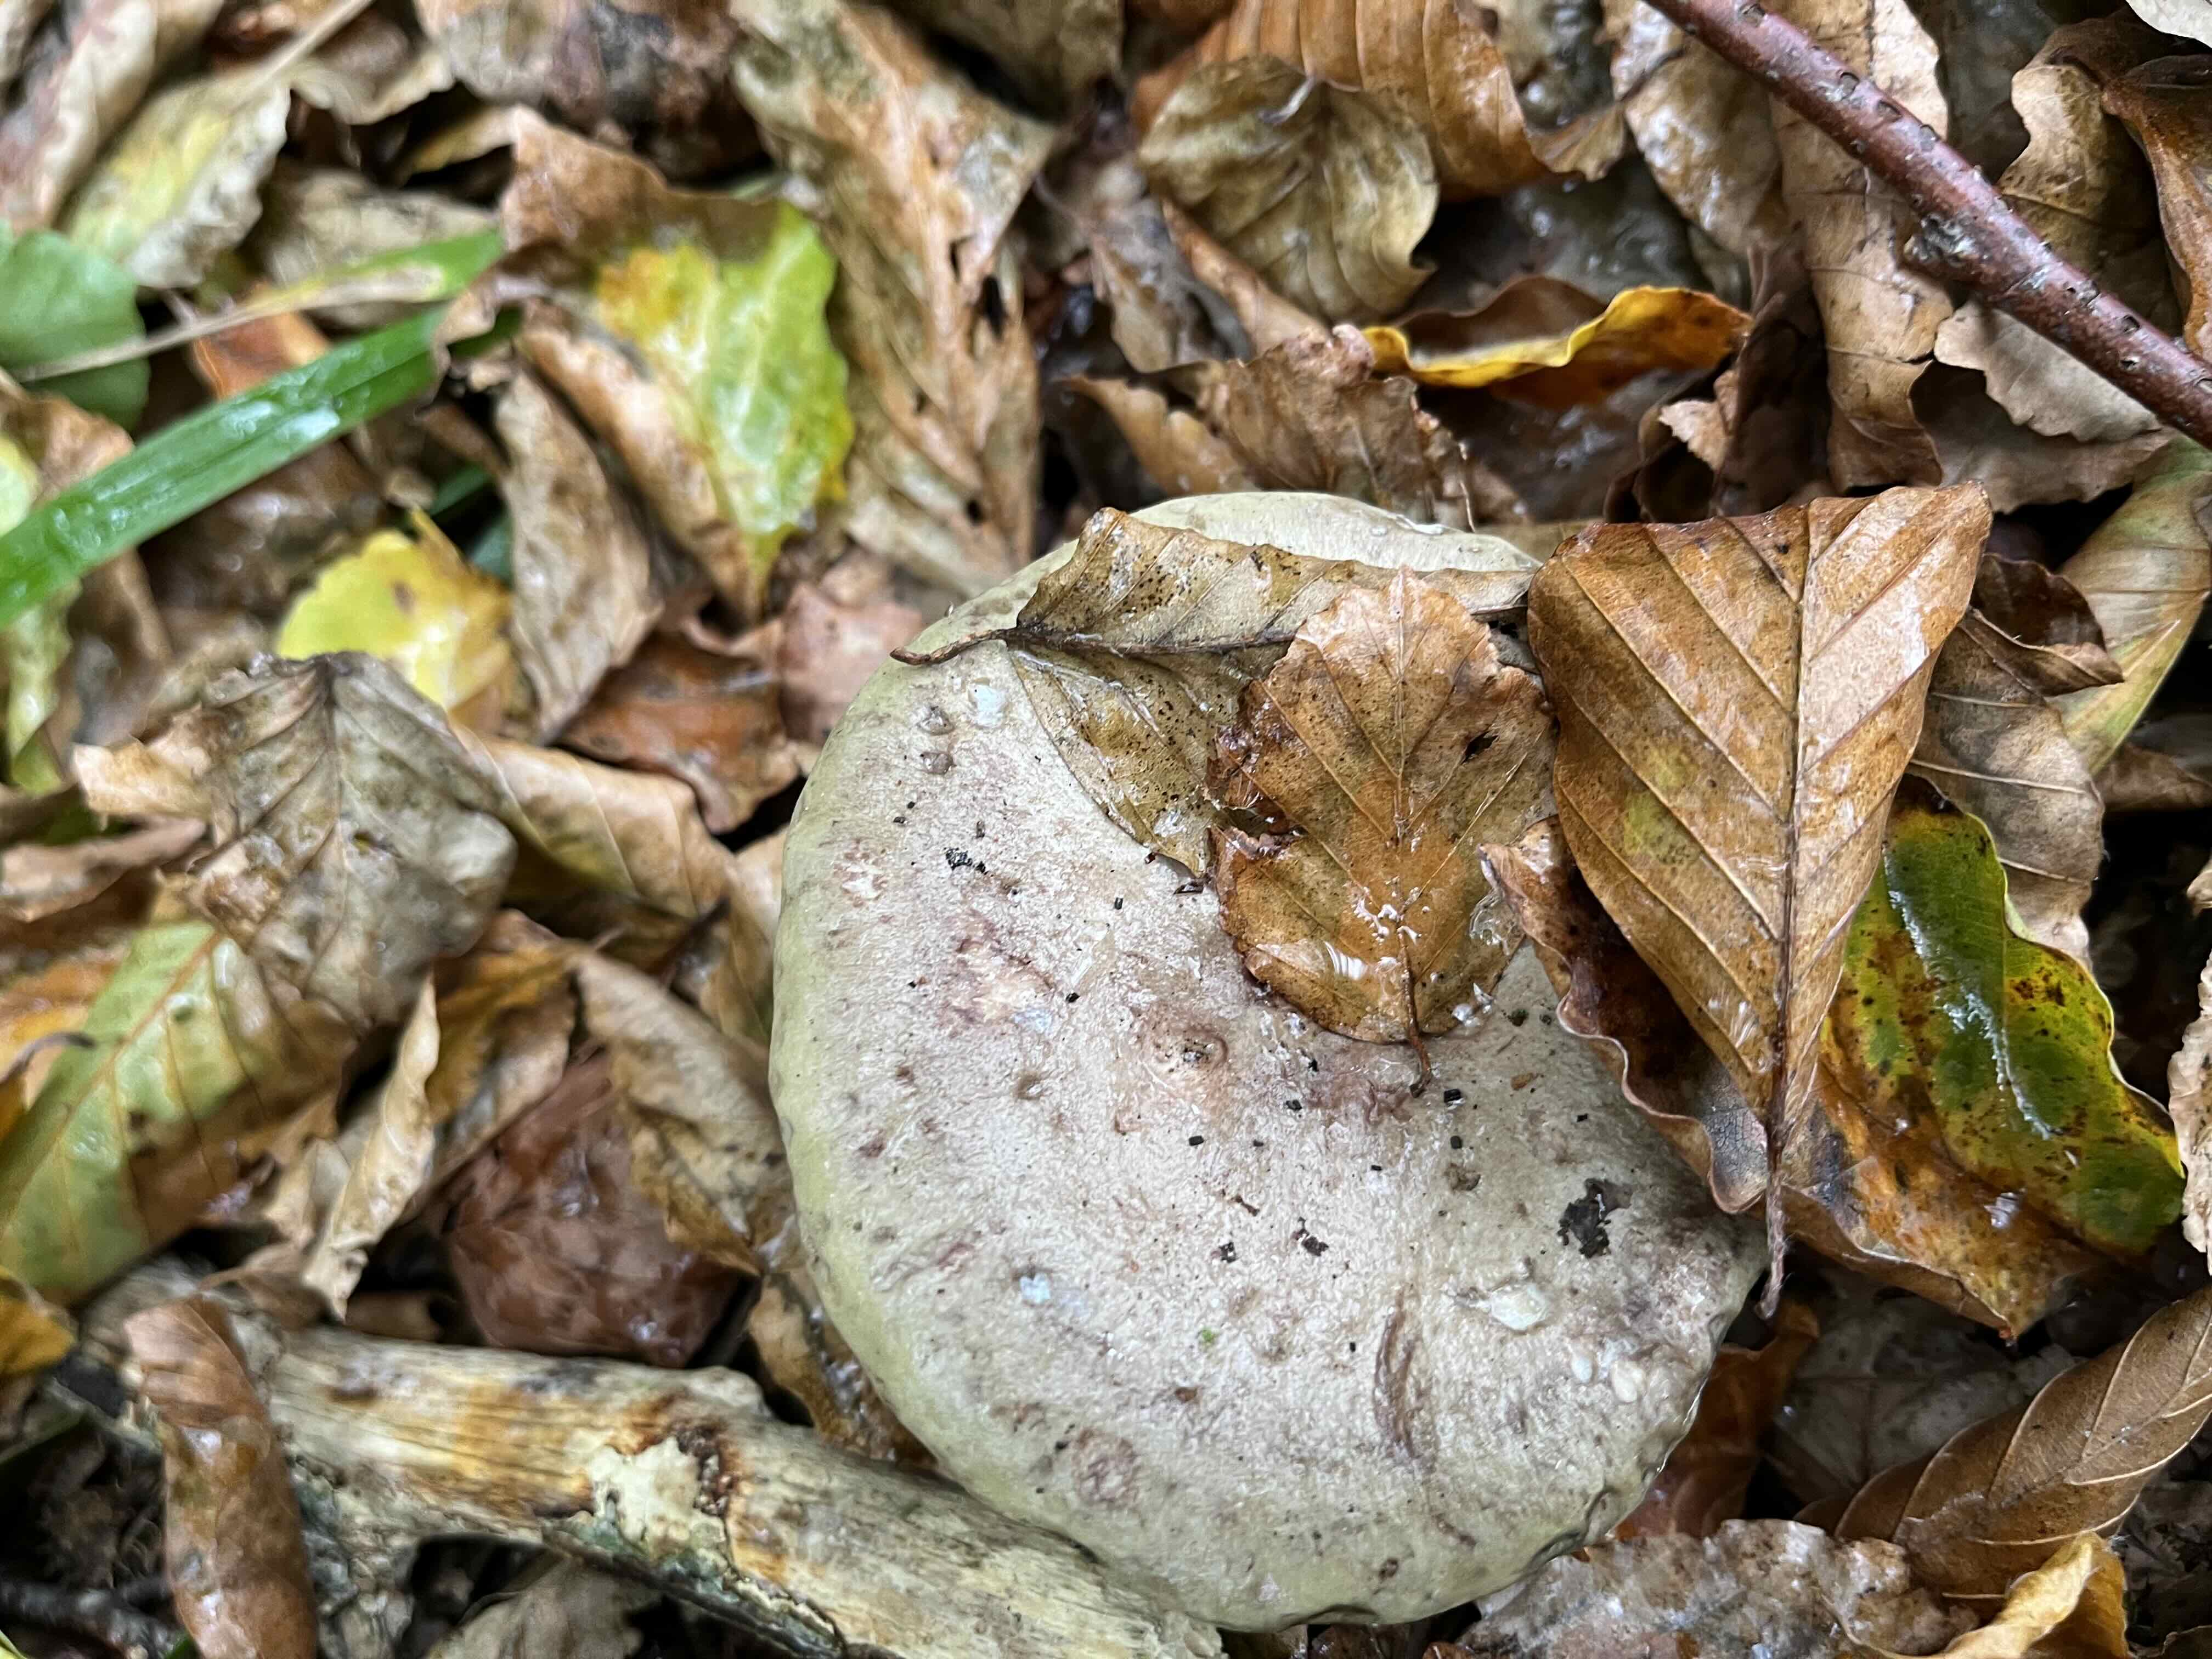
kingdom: Fungi
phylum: Basidiomycota
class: Agaricomycetes
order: Russulales
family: Russulaceae
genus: Lactarius
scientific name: Lactarius blennius
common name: dråbeplettet mælkehat
